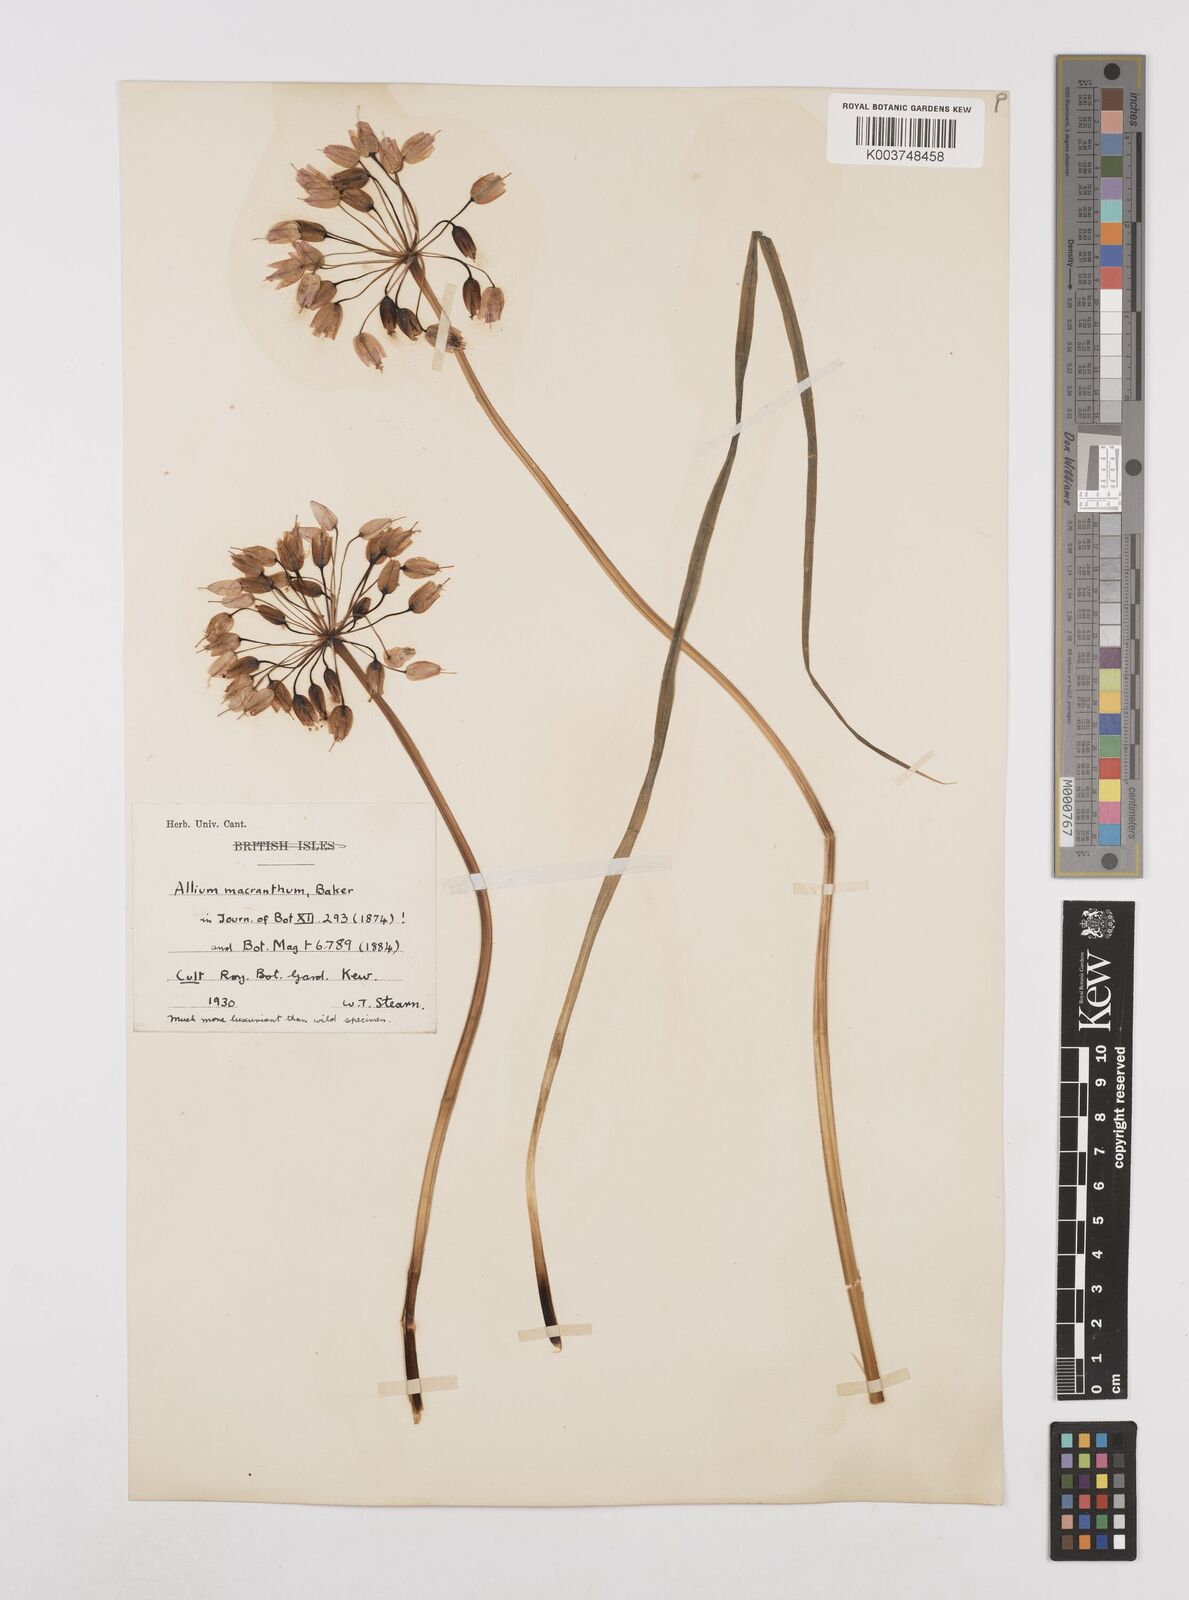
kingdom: Plantae
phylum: Tracheophyta
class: Liliopsida
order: Asparagales
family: Amaryllidaceae
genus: Allium
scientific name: Allium macranthum
